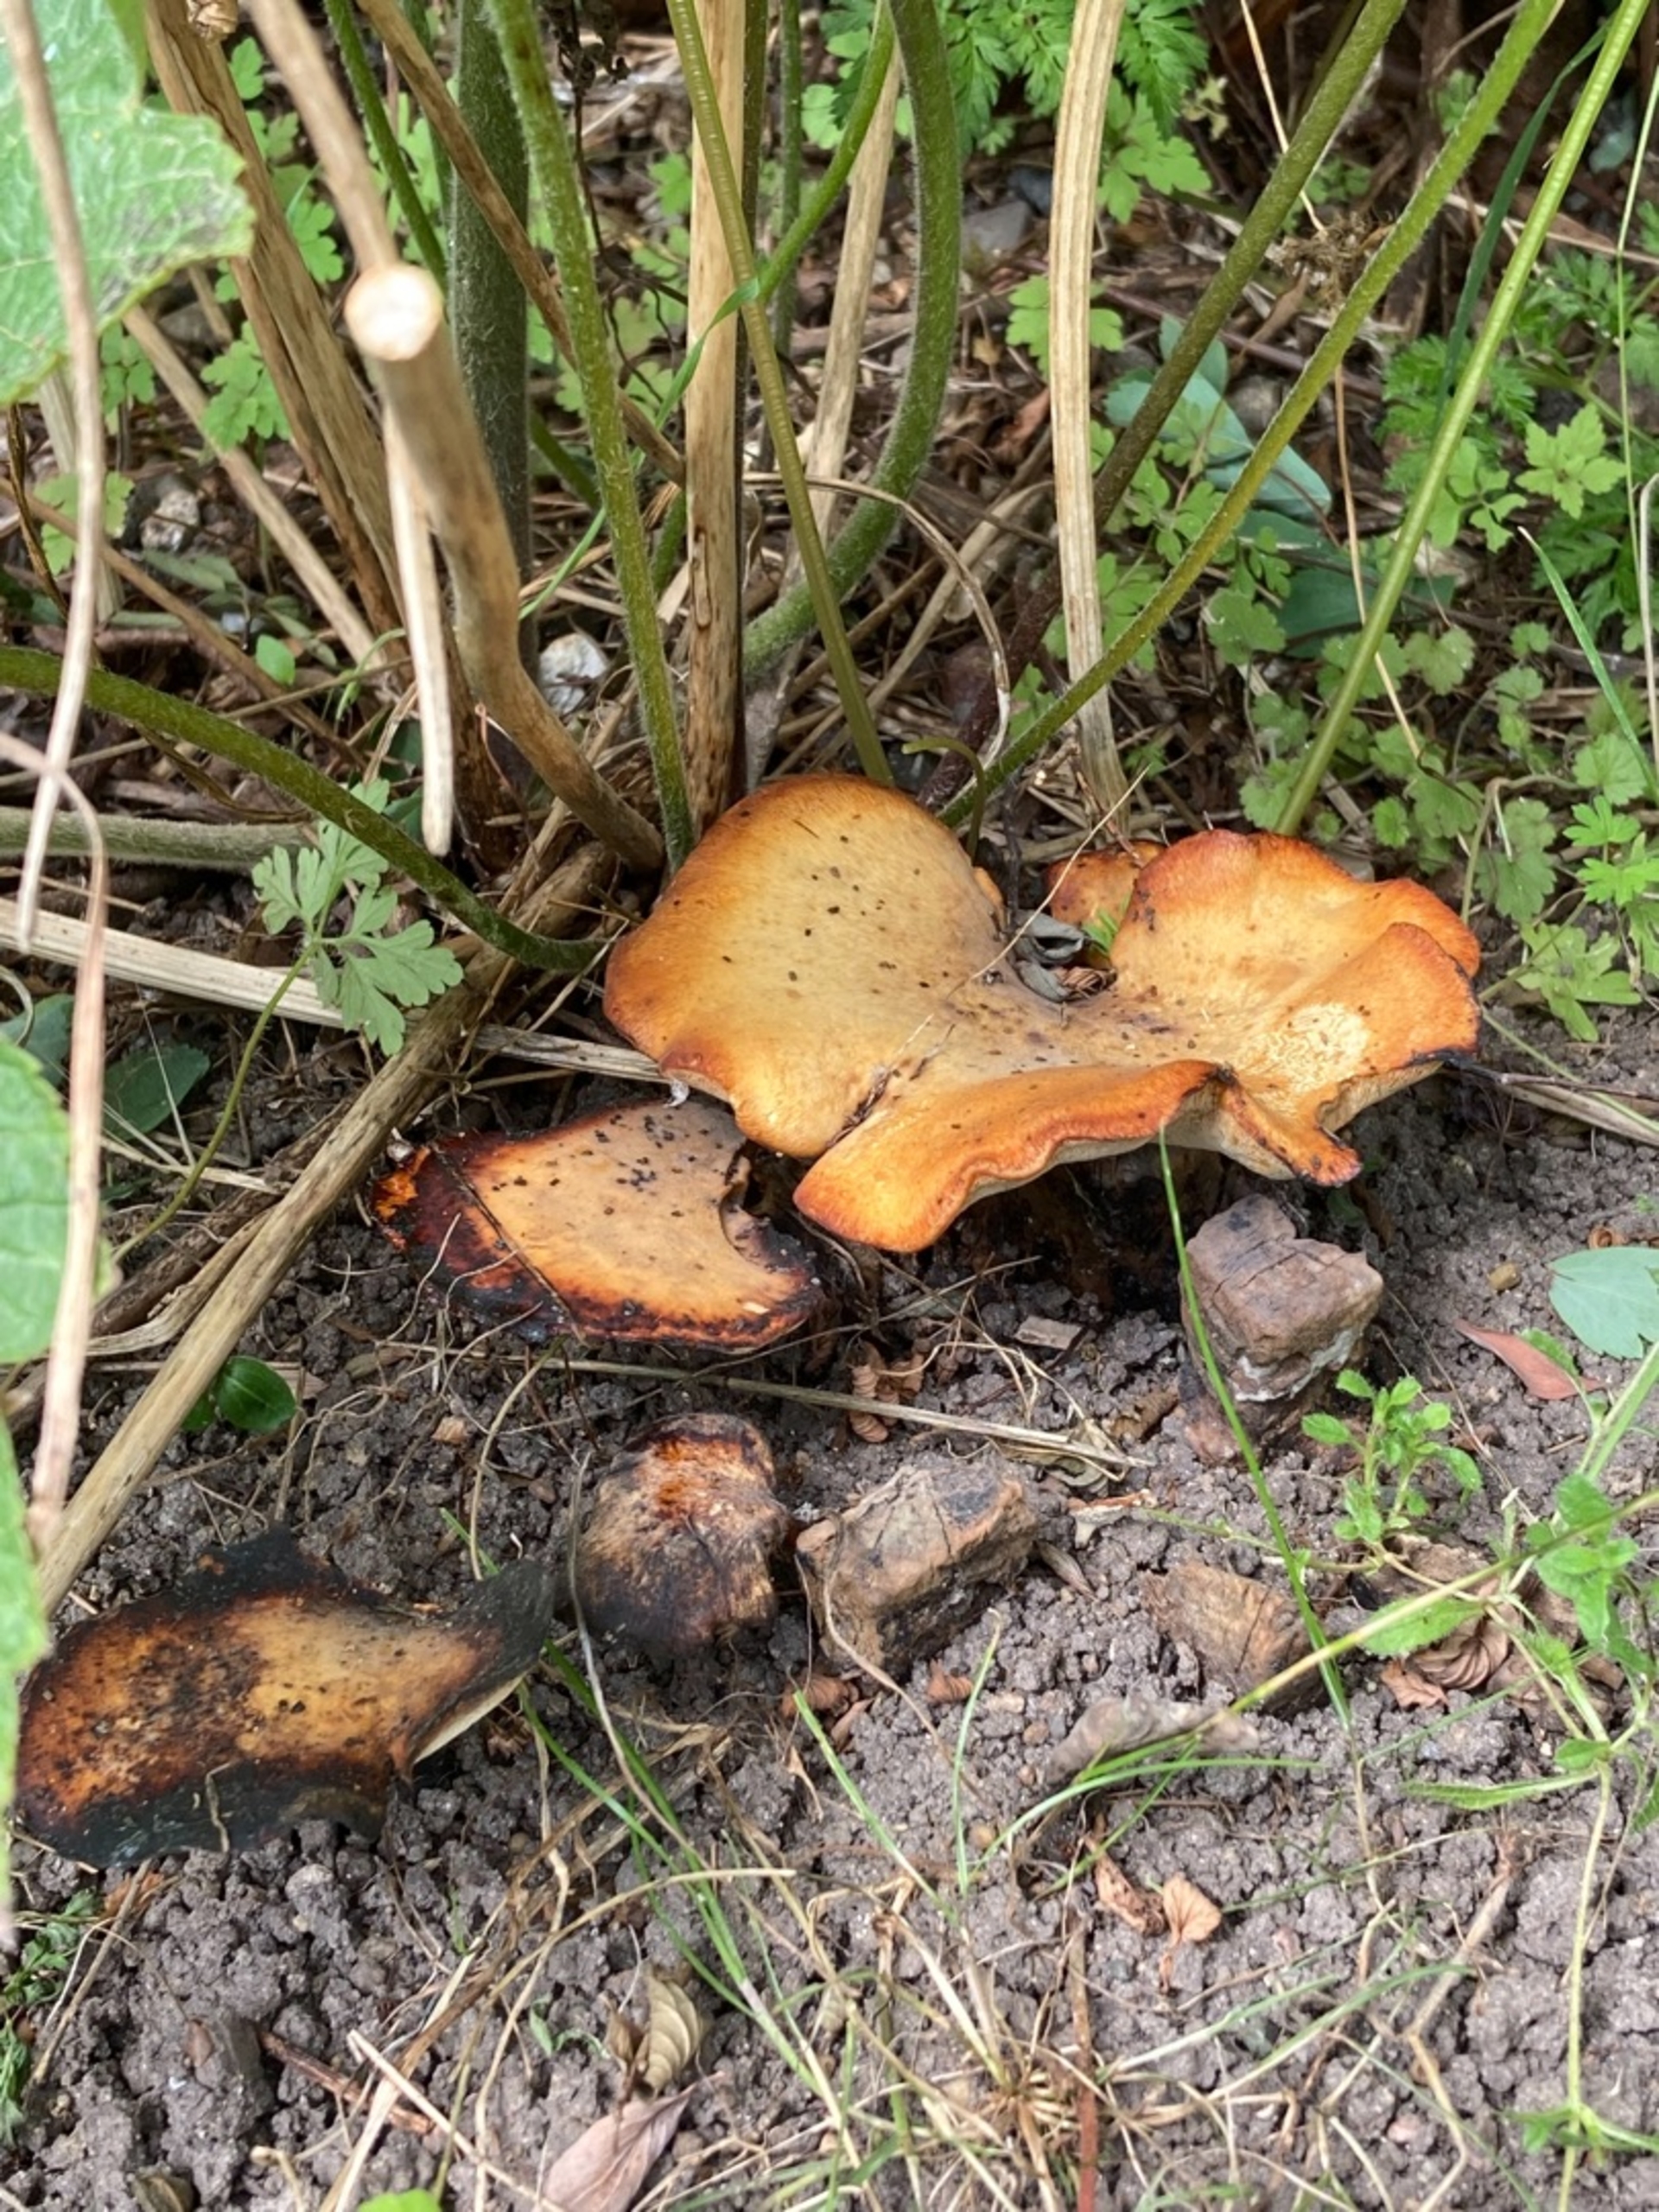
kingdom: Fungi
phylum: Basidiomycota
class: Agaricomycetes
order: Polyporales
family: Polyporaceae
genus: Cerioporus
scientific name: Cerioporus varius
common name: Foranderlig stilkporesvamp
